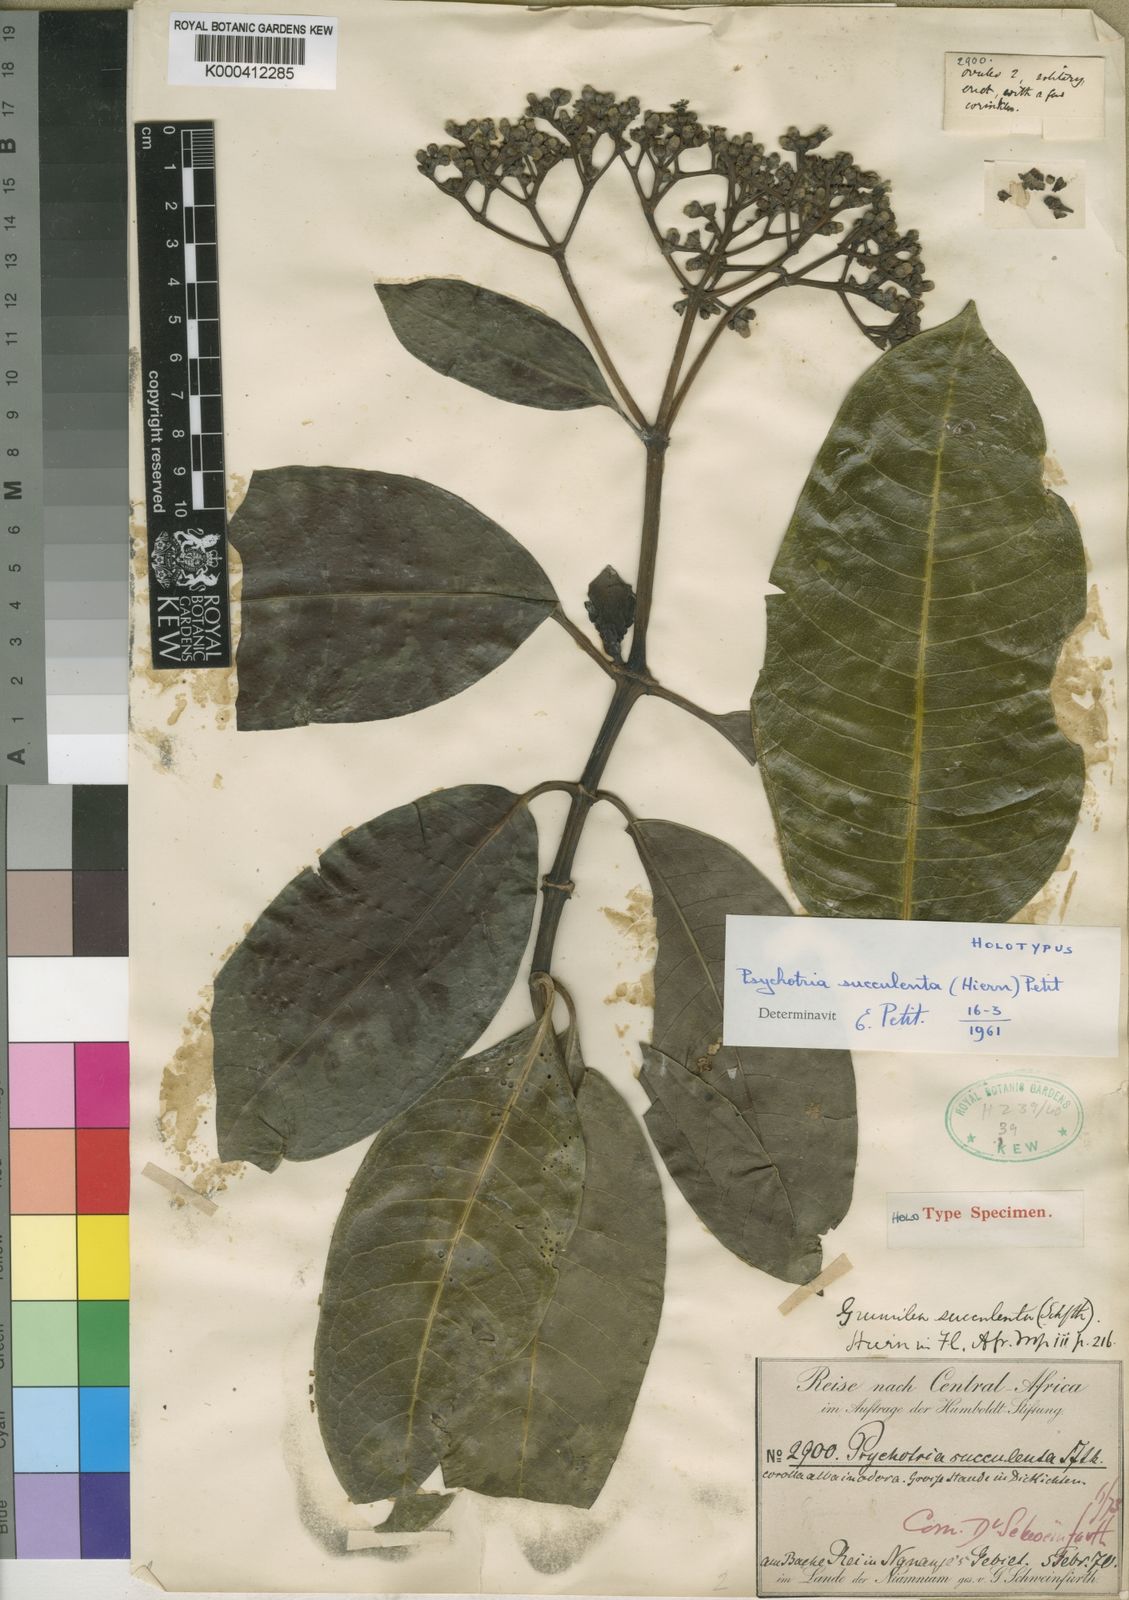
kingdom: Plantae
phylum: Tracheophyta
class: Magnoliopsida
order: Gentianales
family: Rubiaceae
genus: Psychotria
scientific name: Psychotria succulenta
